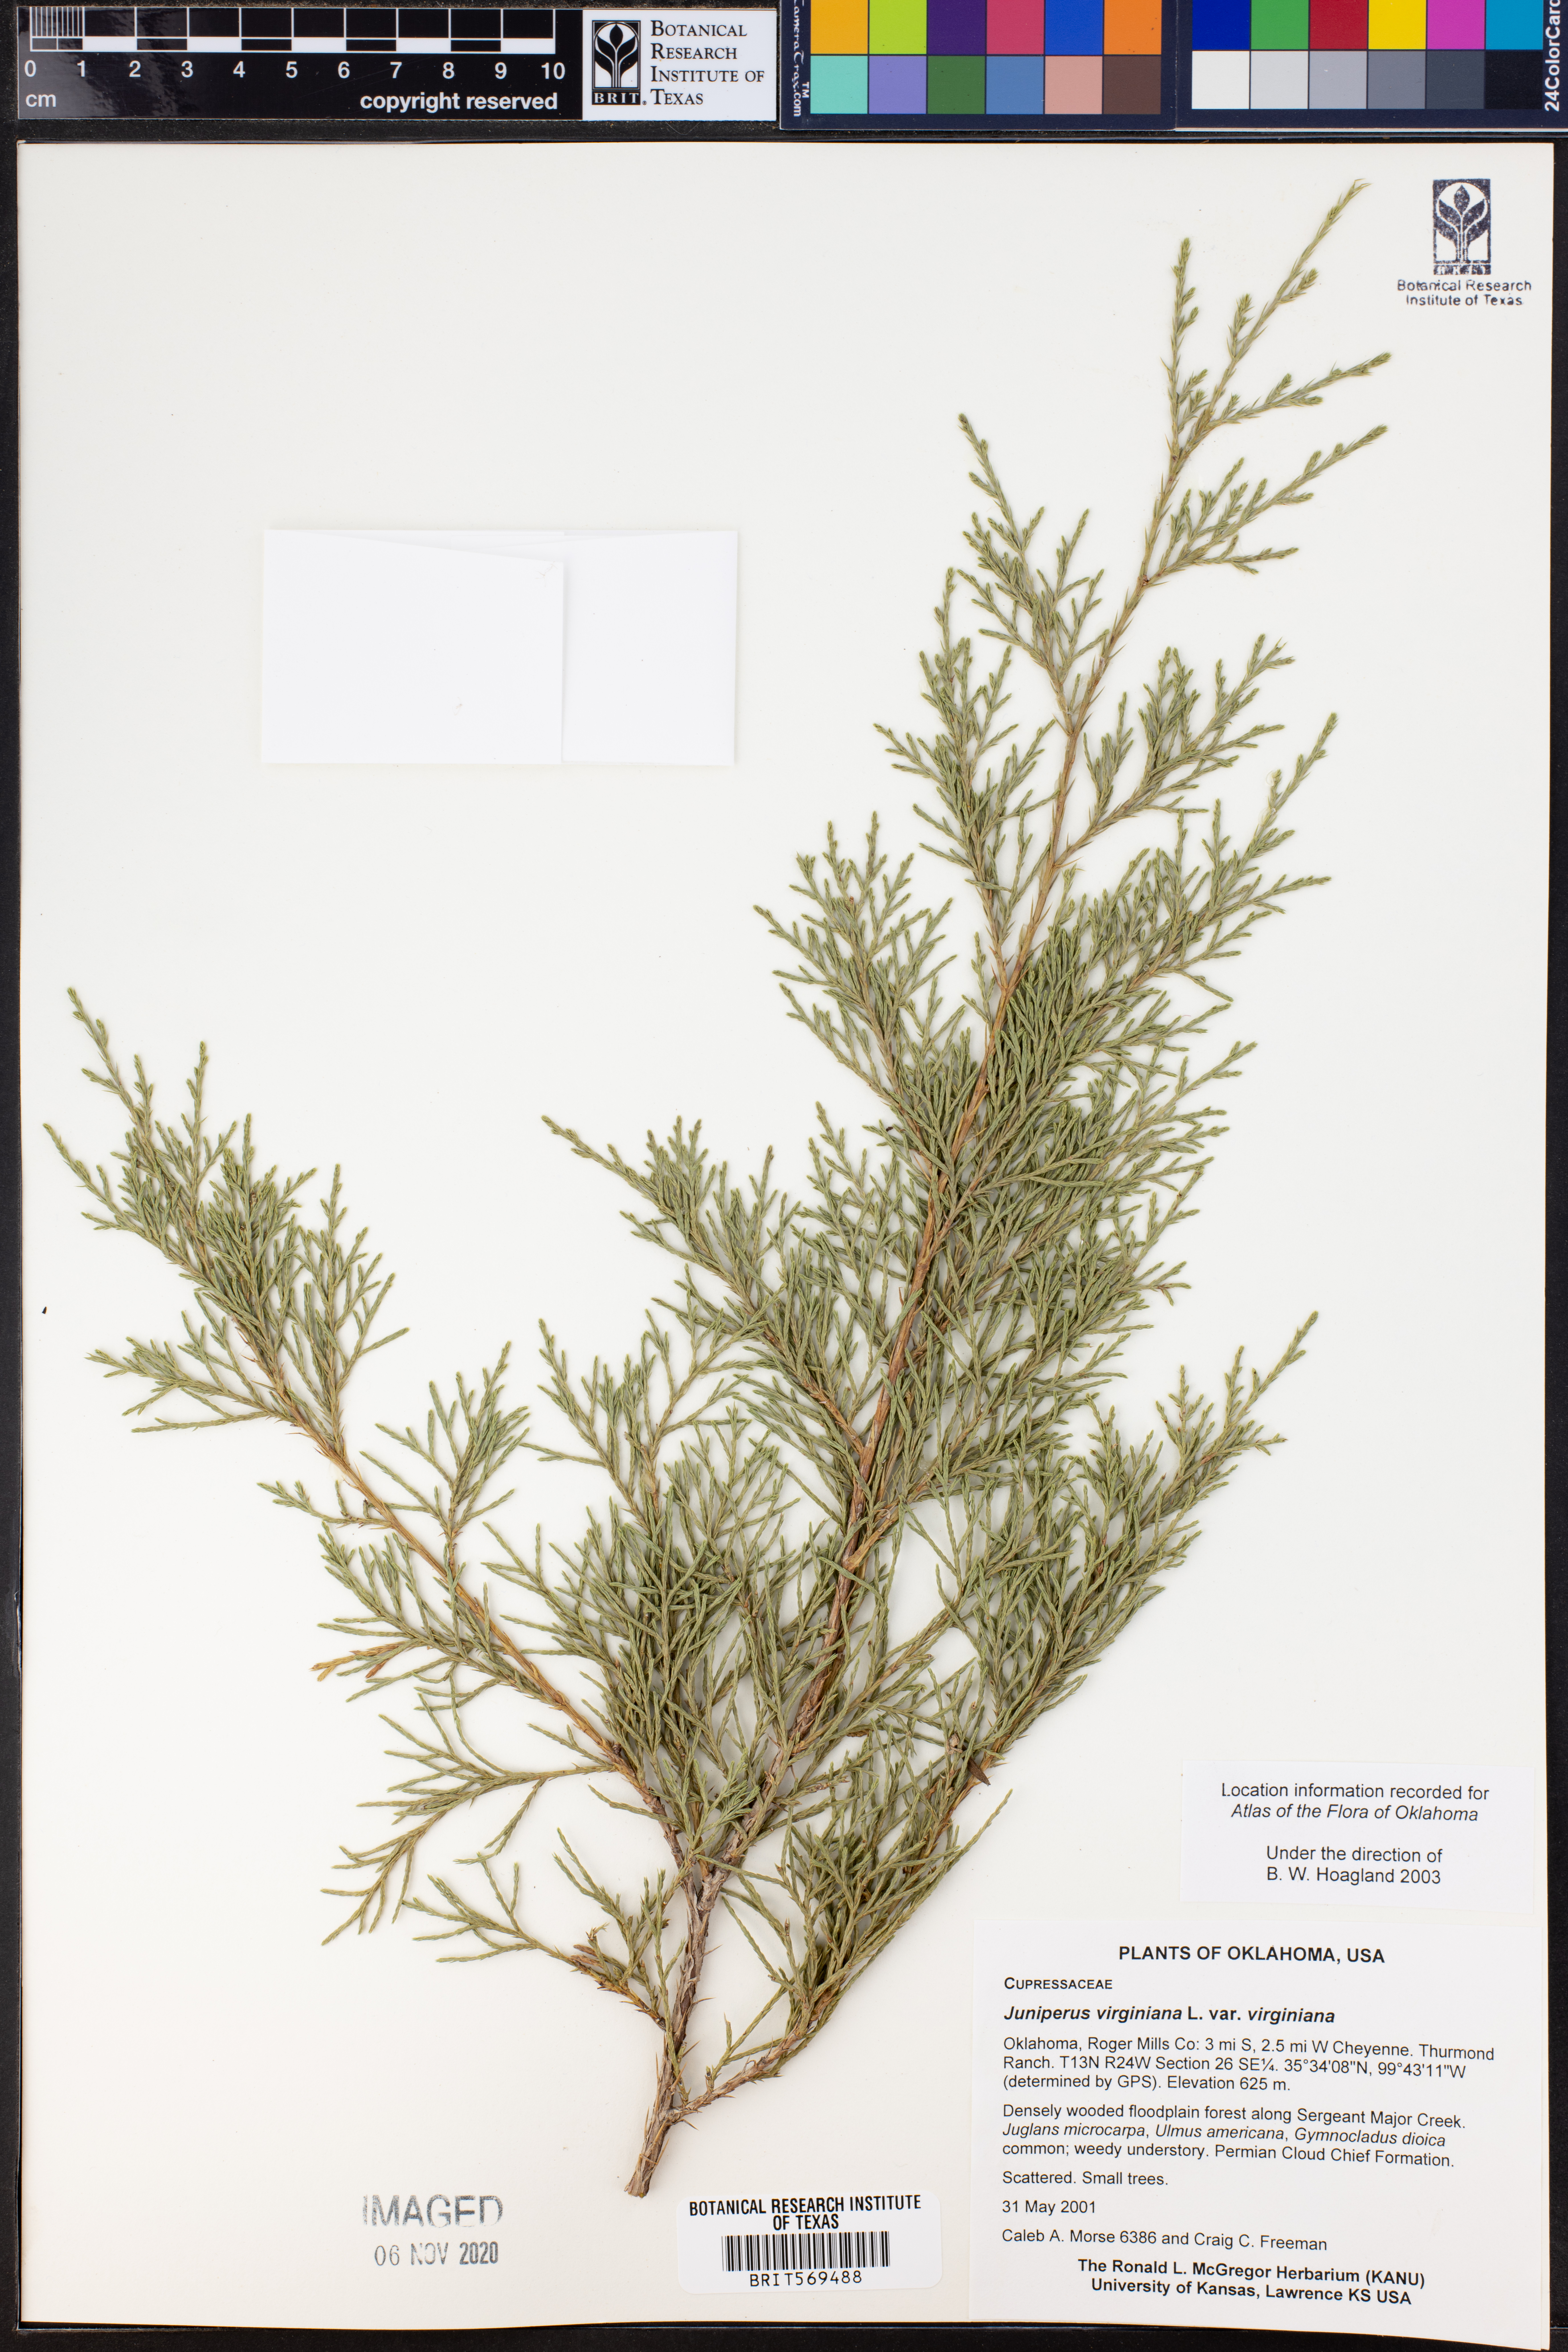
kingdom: Plantae
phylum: Tracheophyta
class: Pinopsida
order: Pinales
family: Cupressaceae
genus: Juniperus
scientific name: Juniperus virginiana
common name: Red juniper
